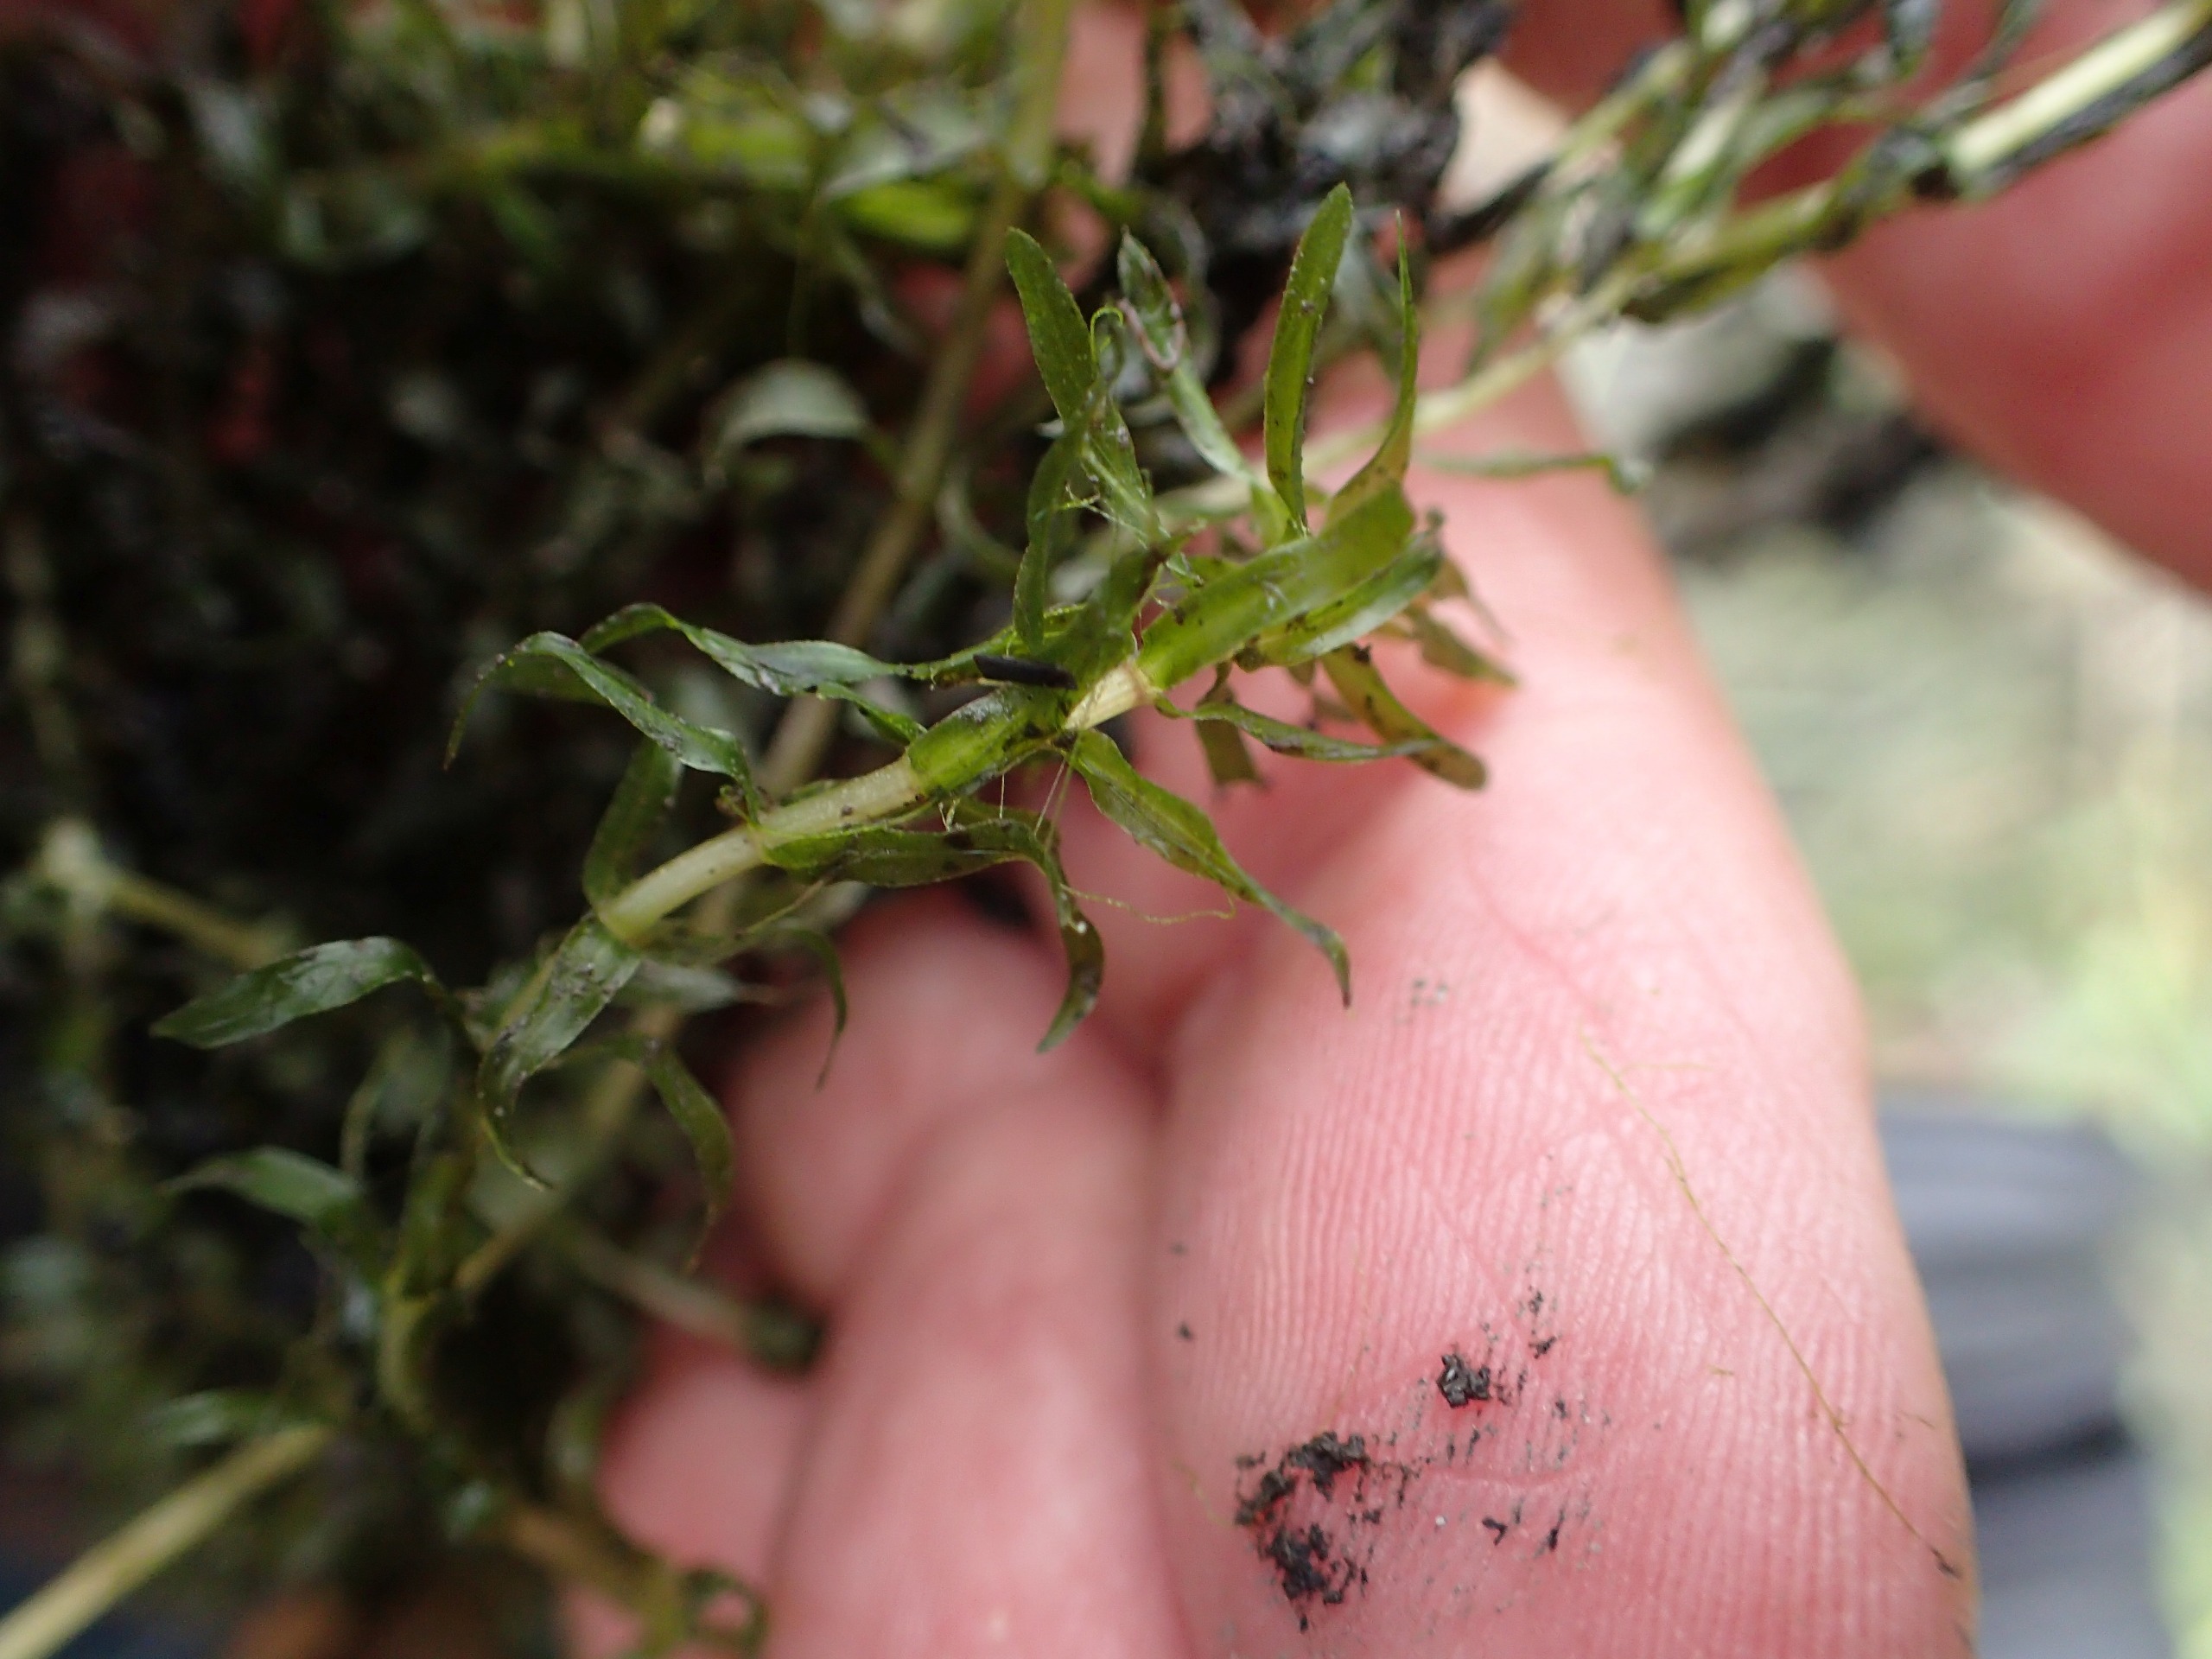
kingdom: Plantae
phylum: Tracheophyta
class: Liliopsida
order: Alismatales
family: Hydrocharitaceae
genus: Elodea
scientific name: Elodea nuttallii
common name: Smalbladet vandpest
